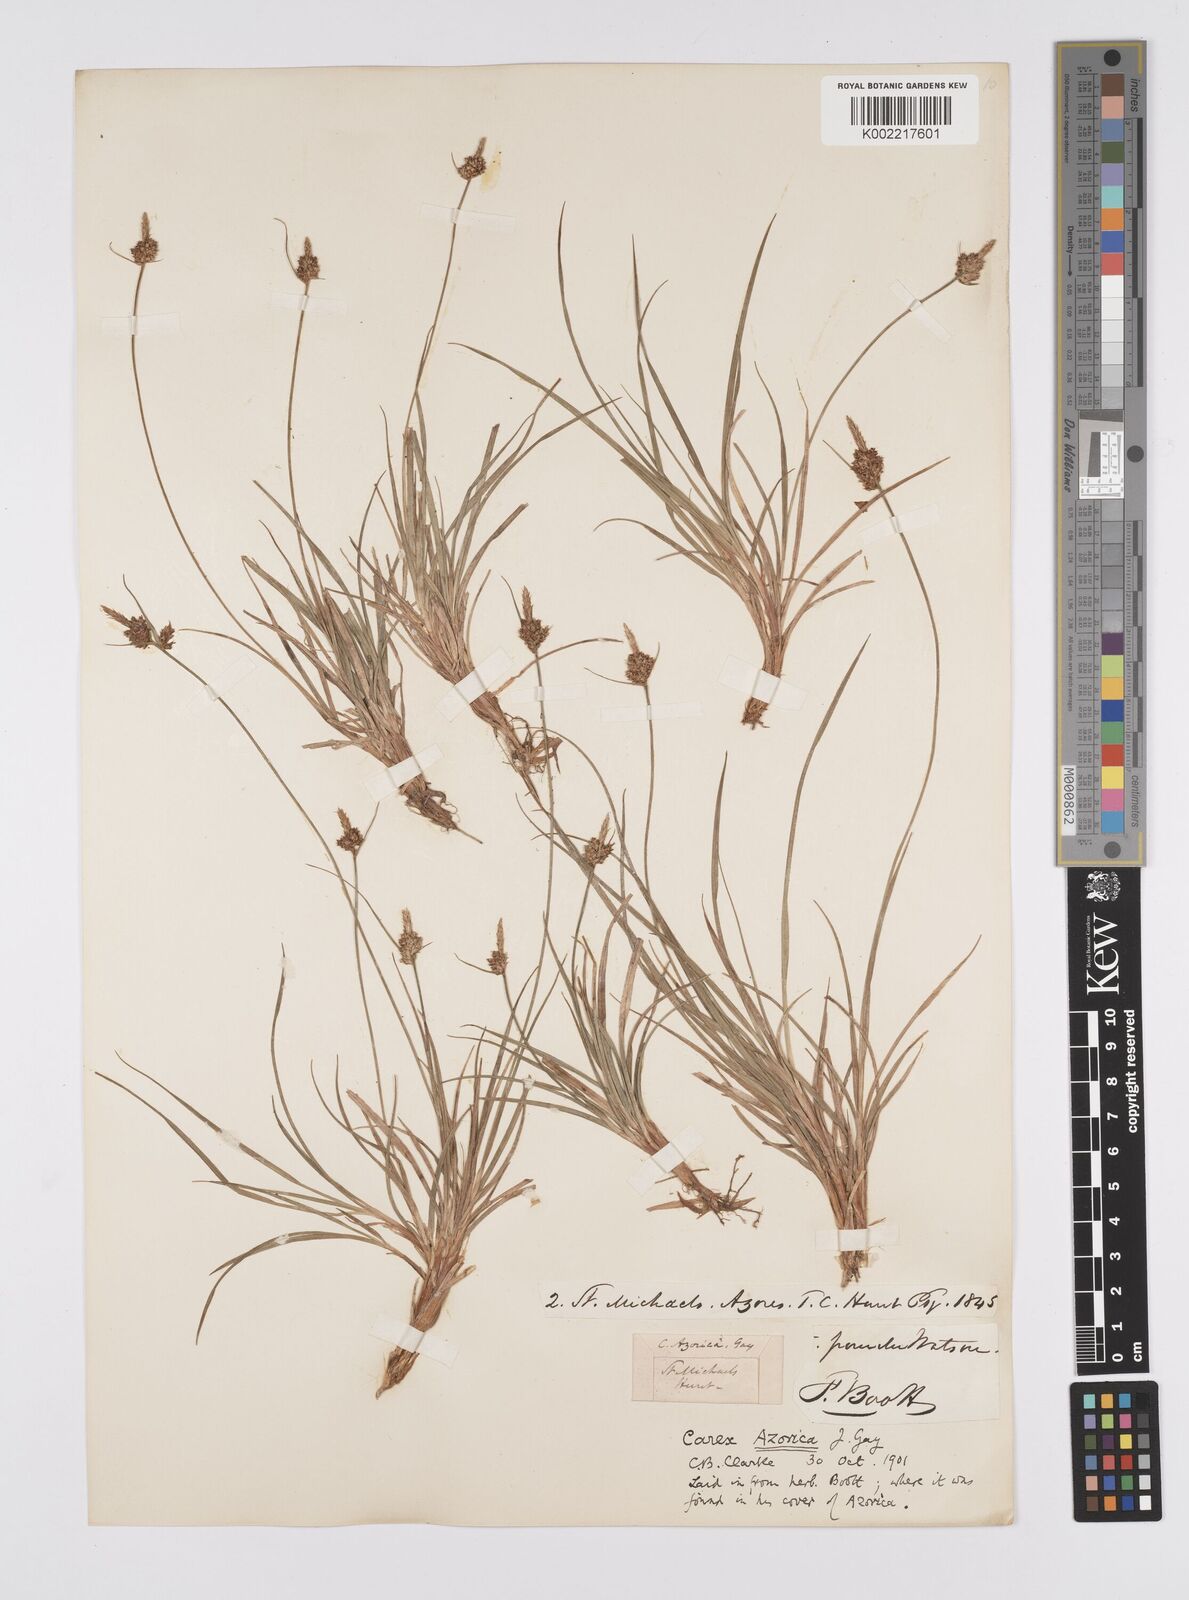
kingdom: Plantae
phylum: Tracheophyta
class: Liliopsida
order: Poales
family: Cyperaceae
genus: Carex
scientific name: Carex pilulifera
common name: Pill sedge
